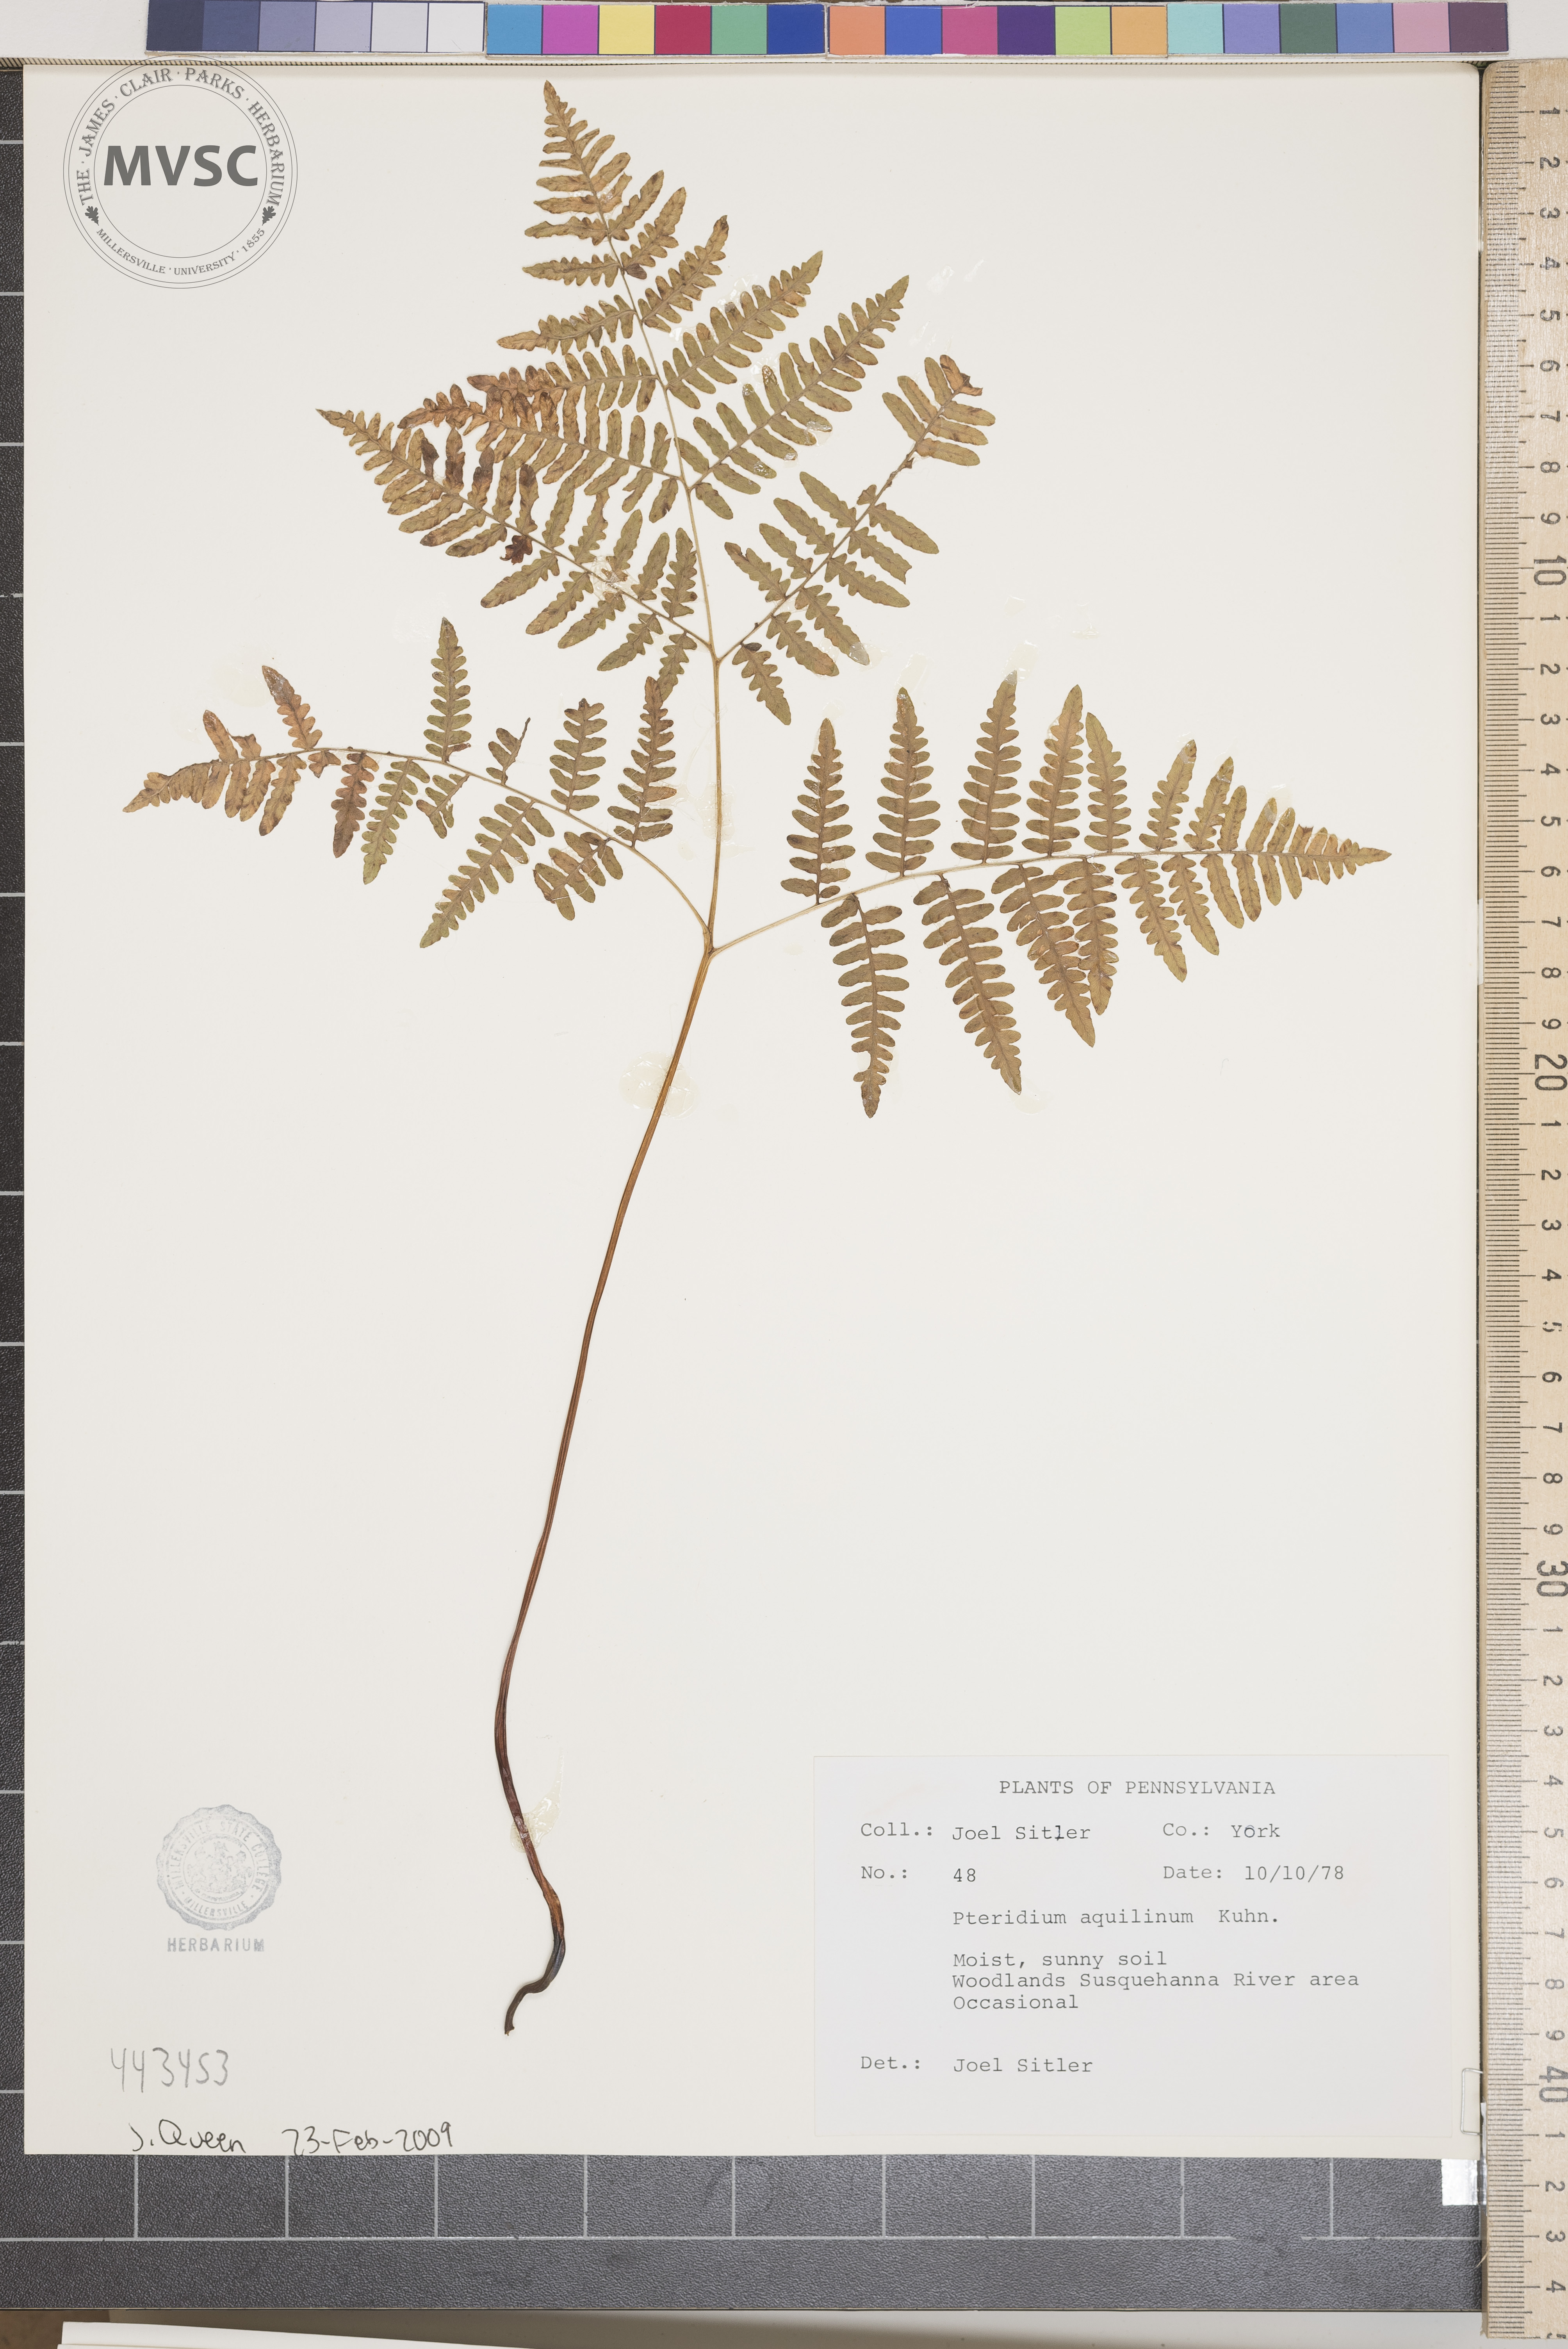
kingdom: Plantae
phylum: Tracheophyta
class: Polypodiopsida
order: Polypodiales
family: Dennstaedtiaceae
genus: Pteridium
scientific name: Pteridium aquilinum
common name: Bracken
